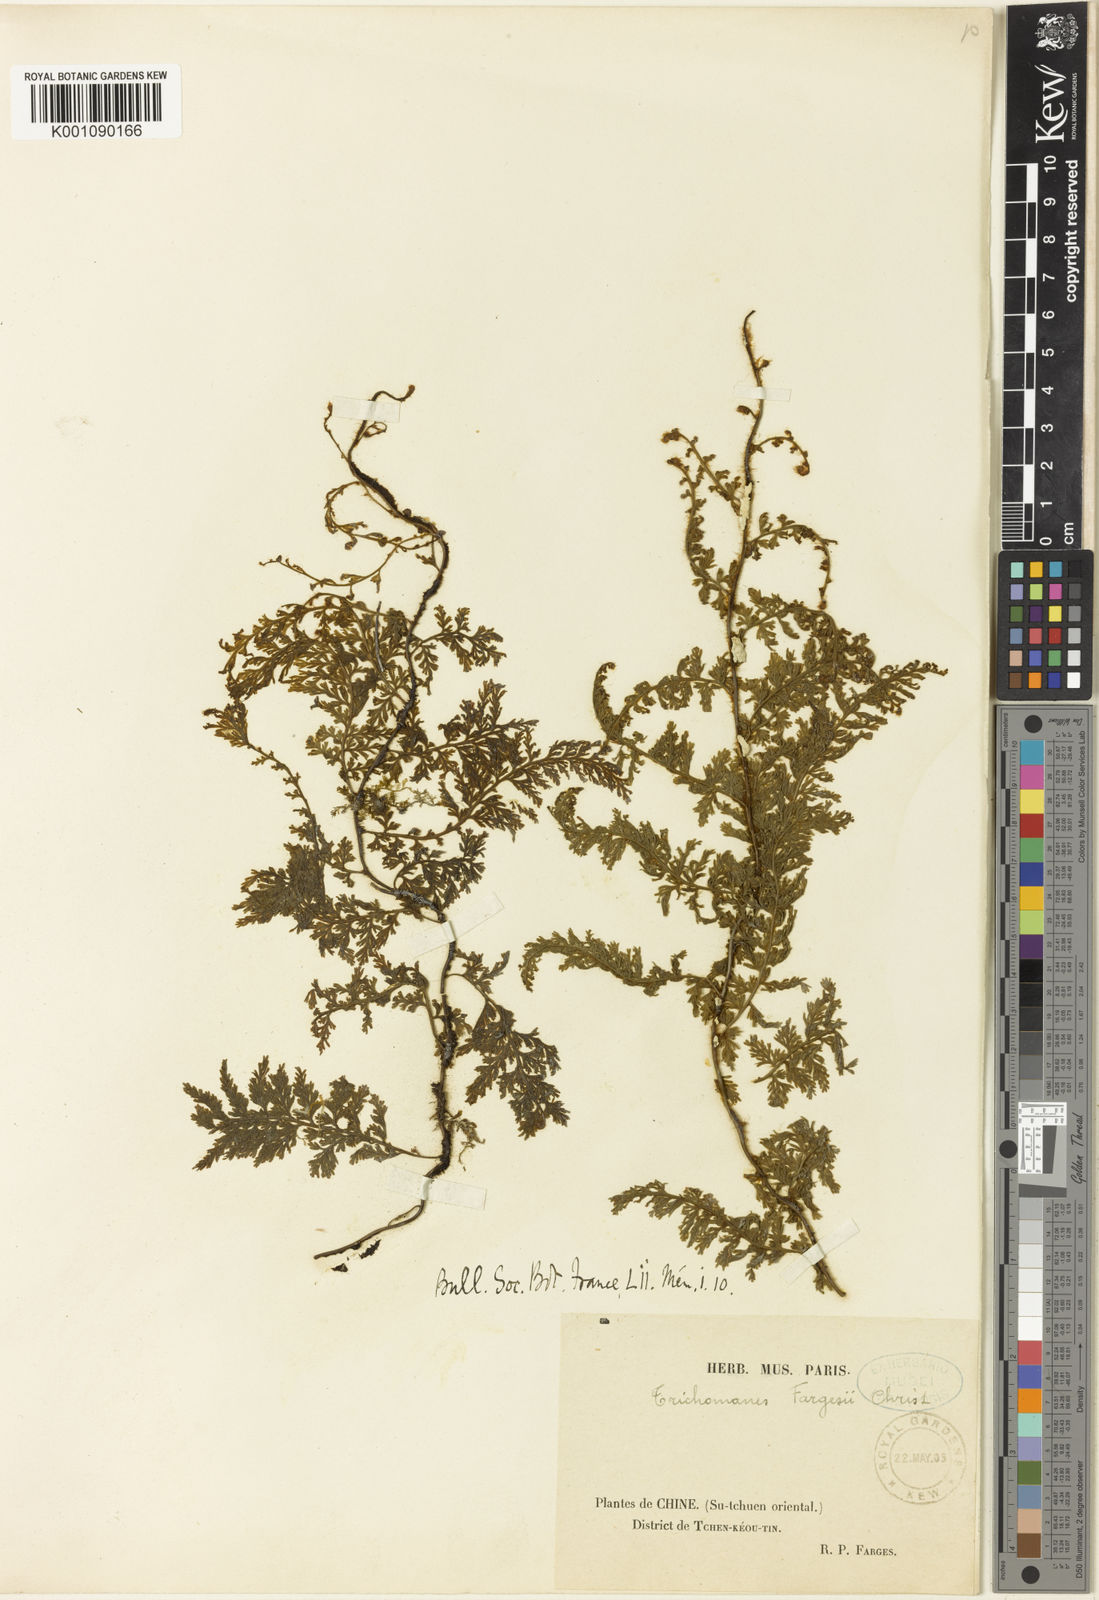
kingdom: Plantae
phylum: Tracheophyta
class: Polypodiopsida
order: Hymenophyllales
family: Hymenophyllaceae
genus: Vandenboschia
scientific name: Vandenboschia fargesii
